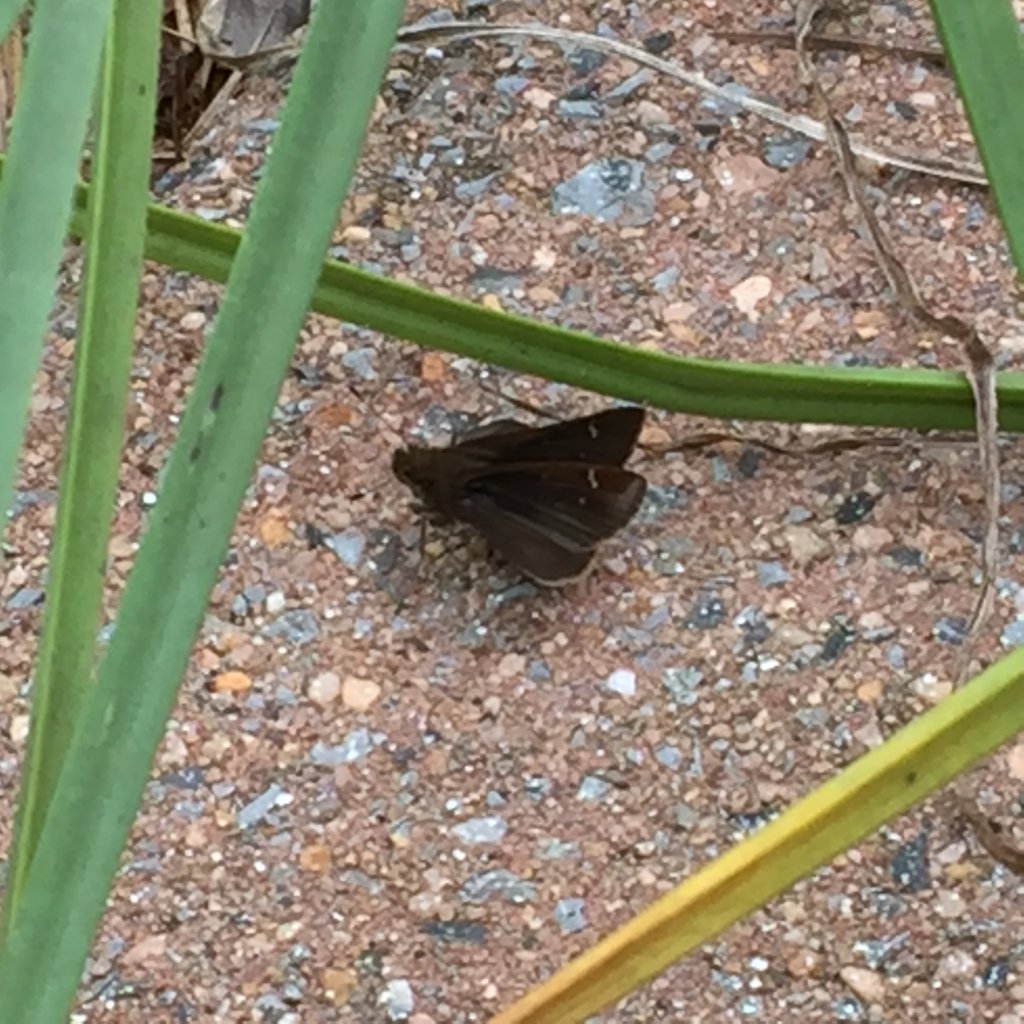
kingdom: Animalia
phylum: Arthropoda
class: Insecta
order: Lepidoptera
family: Hesperiidae
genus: Lerema
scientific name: Lerema accius
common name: Clouded Skipper
